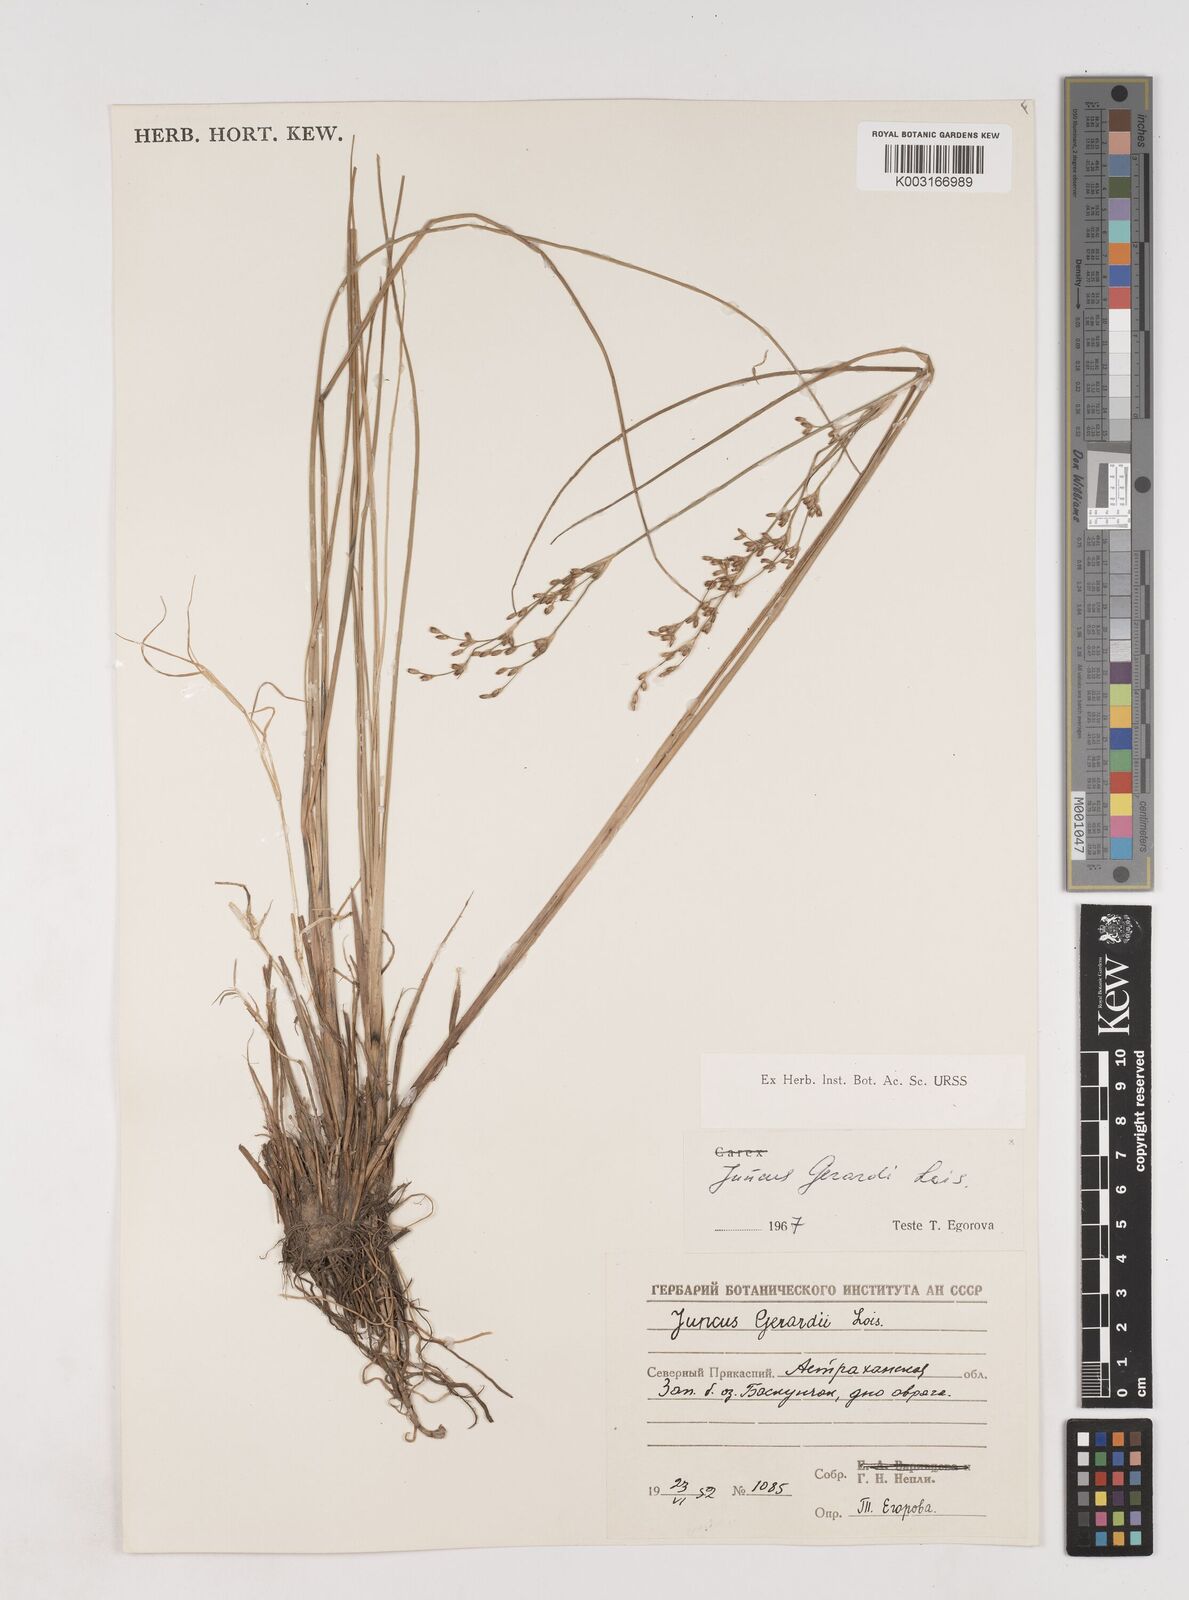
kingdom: Plantae
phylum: Tracheophyta
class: Liliopsida
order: Poales
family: Juncaceae
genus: Juncus
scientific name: Juncus gerardi
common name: Saltmarsh rush
